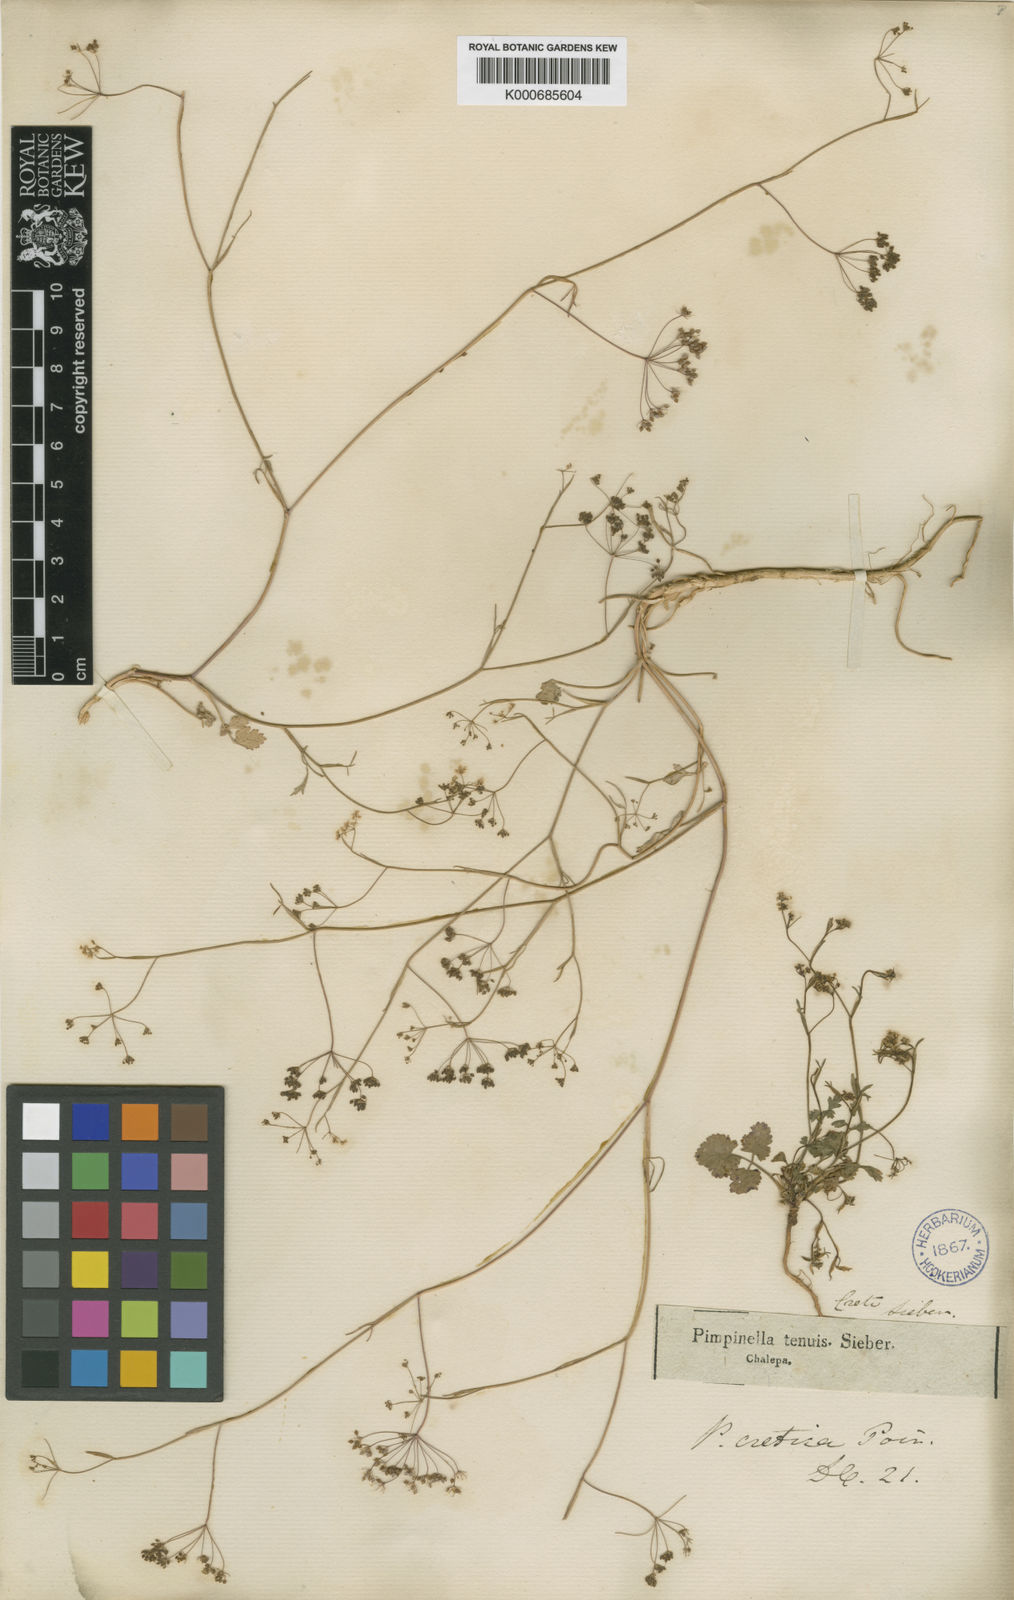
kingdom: Plantae
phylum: Tracheophyta
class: Magnoliopsida
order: Apiales
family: Apiaceae
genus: Pimpinella
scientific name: Pimpinella cretica
